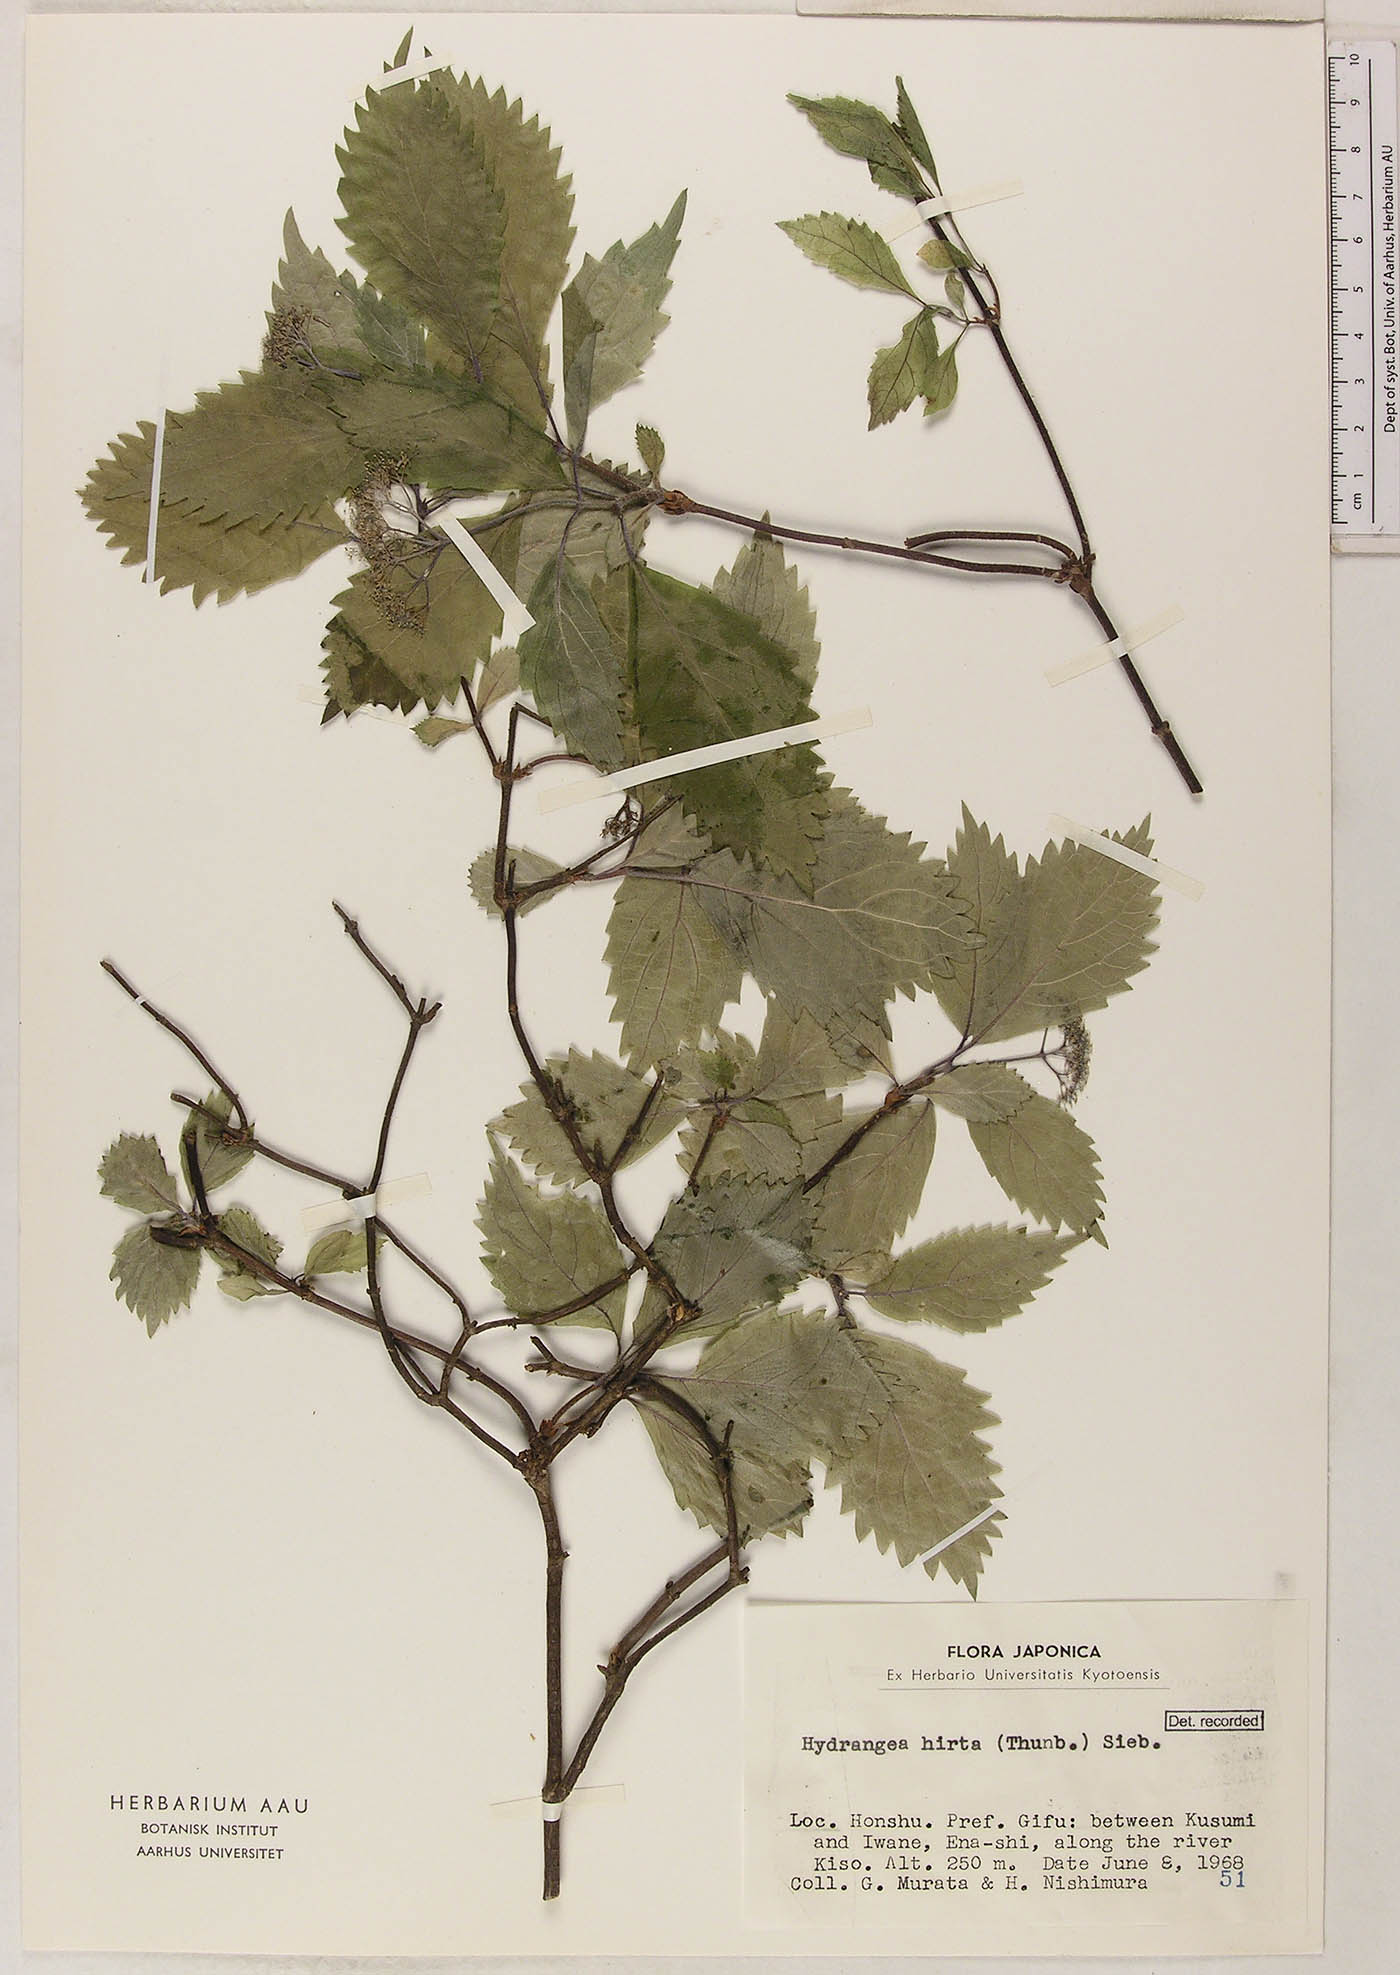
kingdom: Plantae
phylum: Tracheophyta
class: Magnoliopsida
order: Cornales
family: Hydrangeaceae
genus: Hydrangea
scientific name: Hydrangea hirta
